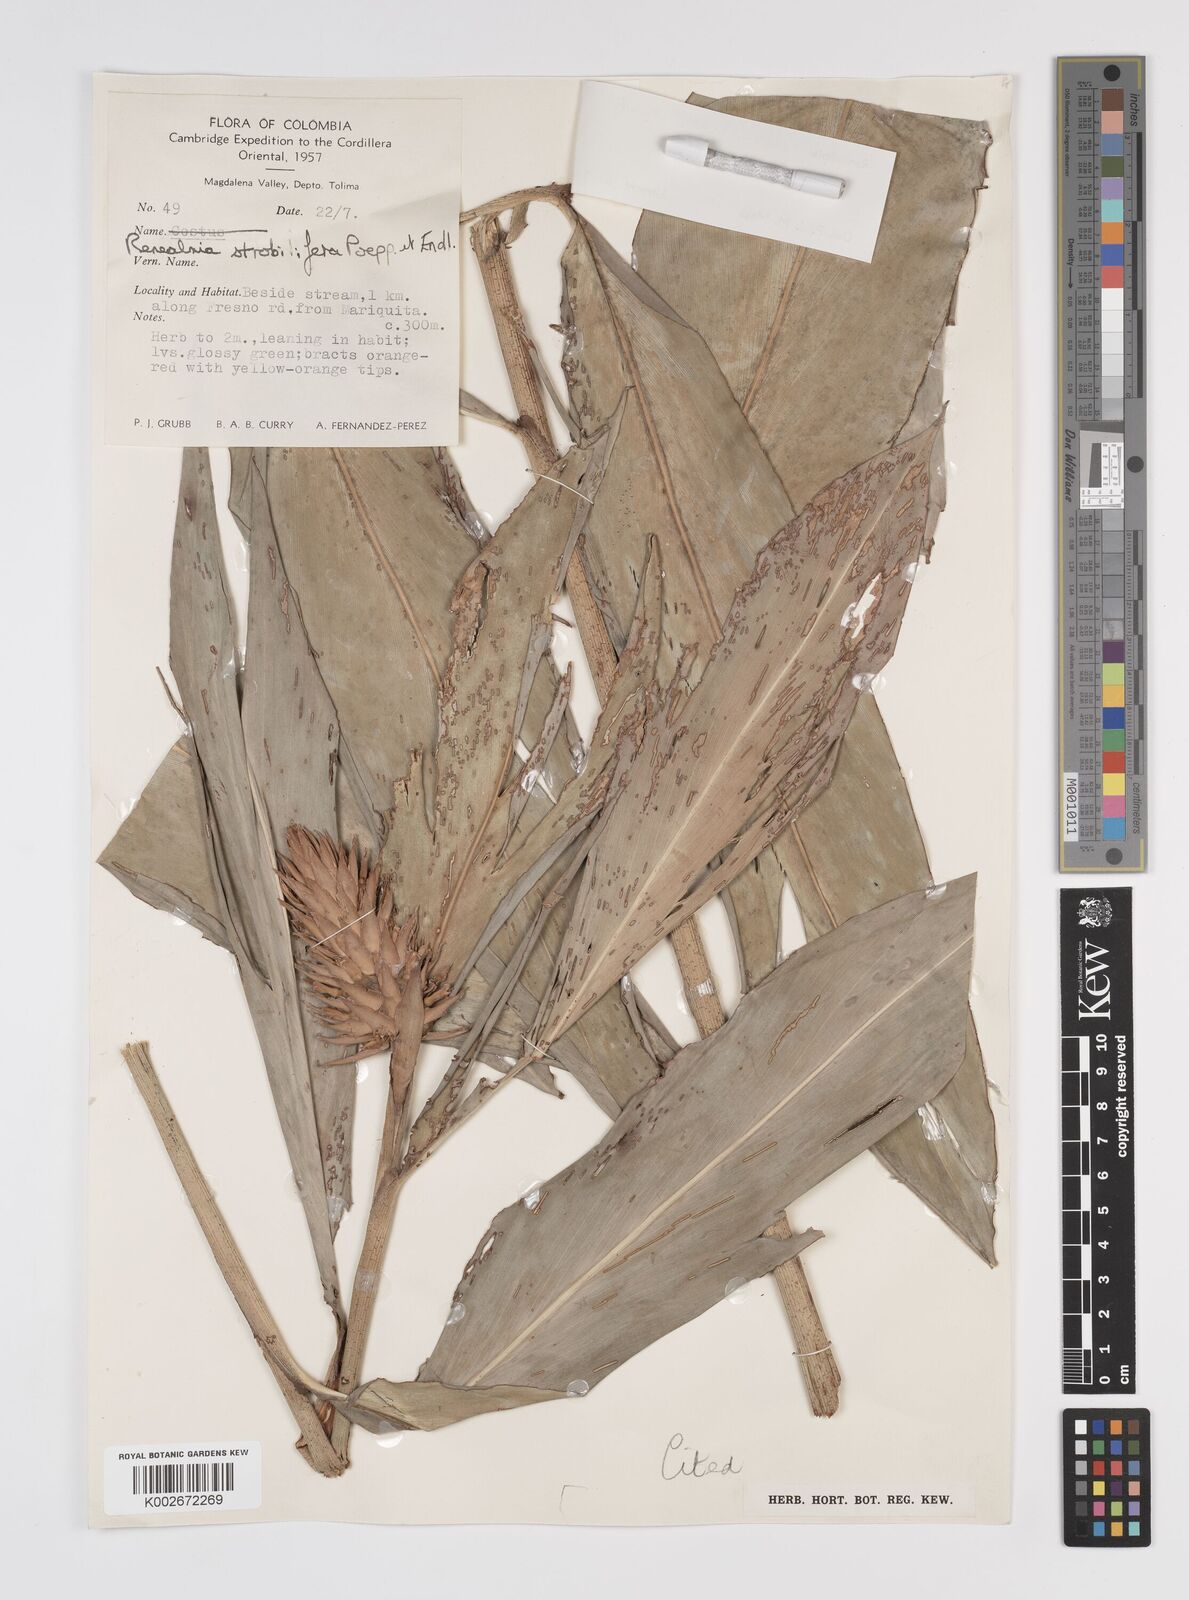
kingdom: Plantae
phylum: Tracheophyta
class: Liliopsida
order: Zingiberales
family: Zingiberaceae
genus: Renealmia
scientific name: Renealmia cernua
